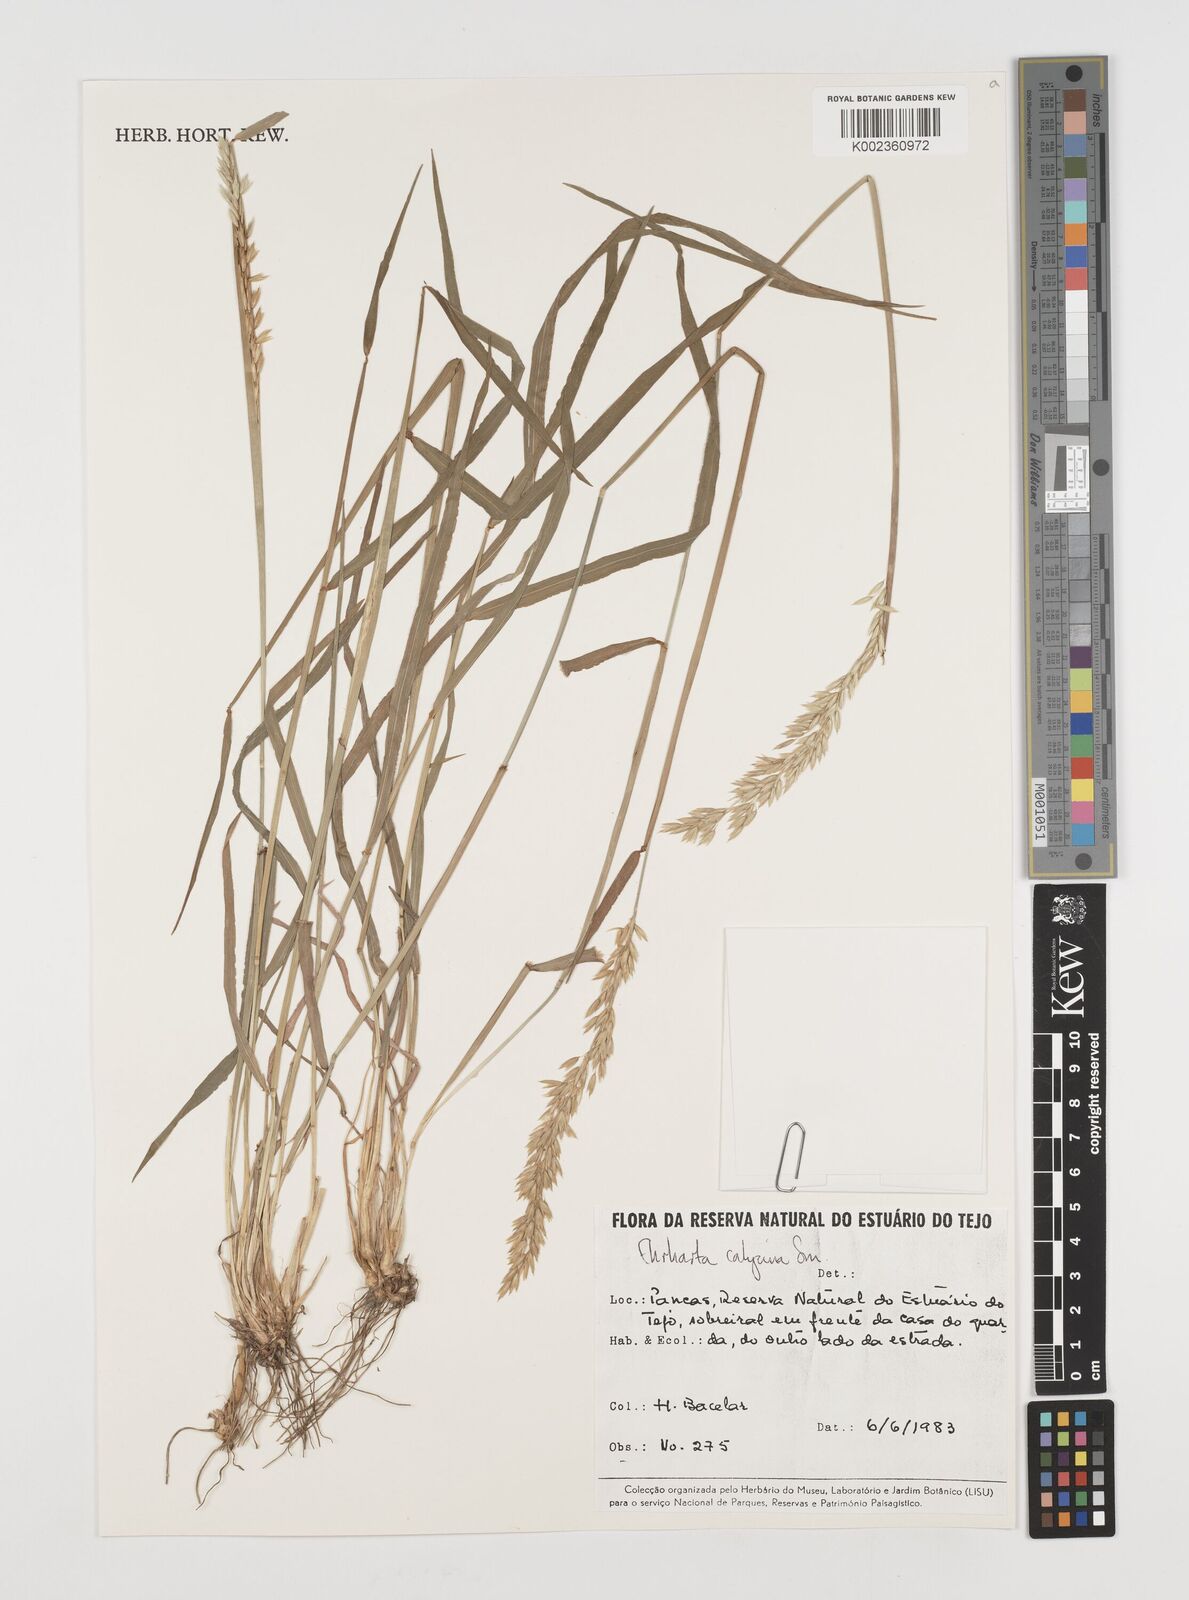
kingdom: Plantae
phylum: Tracheophyta
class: Liliopsida
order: Poales
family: Poaceae
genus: Ehrharta
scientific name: Ehrharta calycina
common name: Perennial veldtgrass
